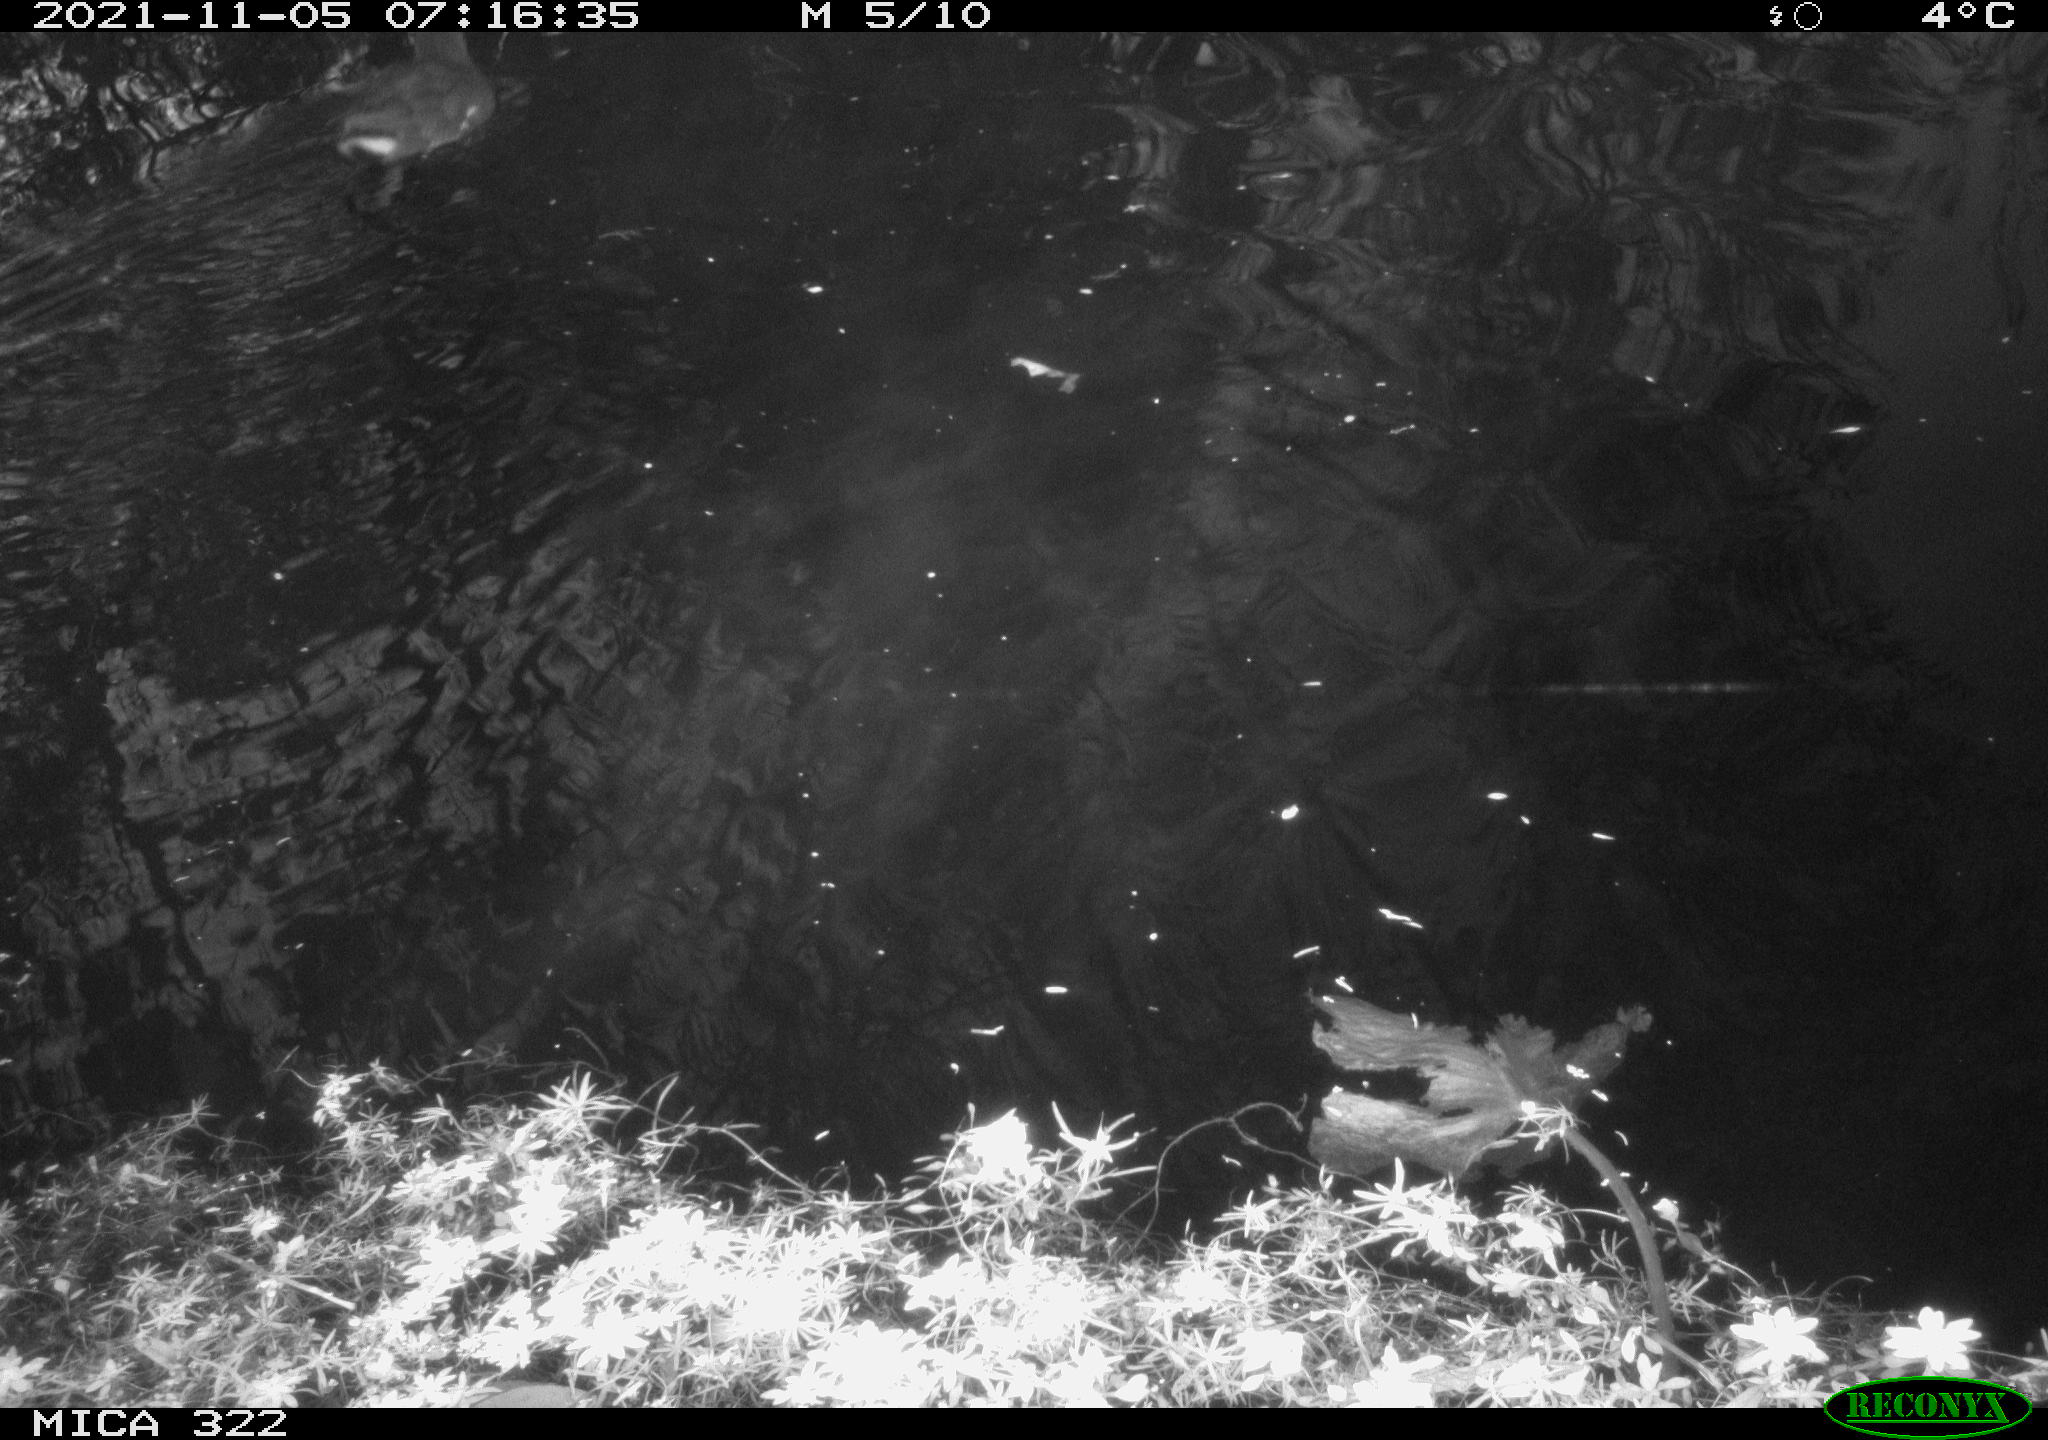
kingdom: Animalia
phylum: Chordata
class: Aves
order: Gruiformes
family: Rallidae
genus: Gallinula
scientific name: Gallinula chloropus
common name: Common moorhen
